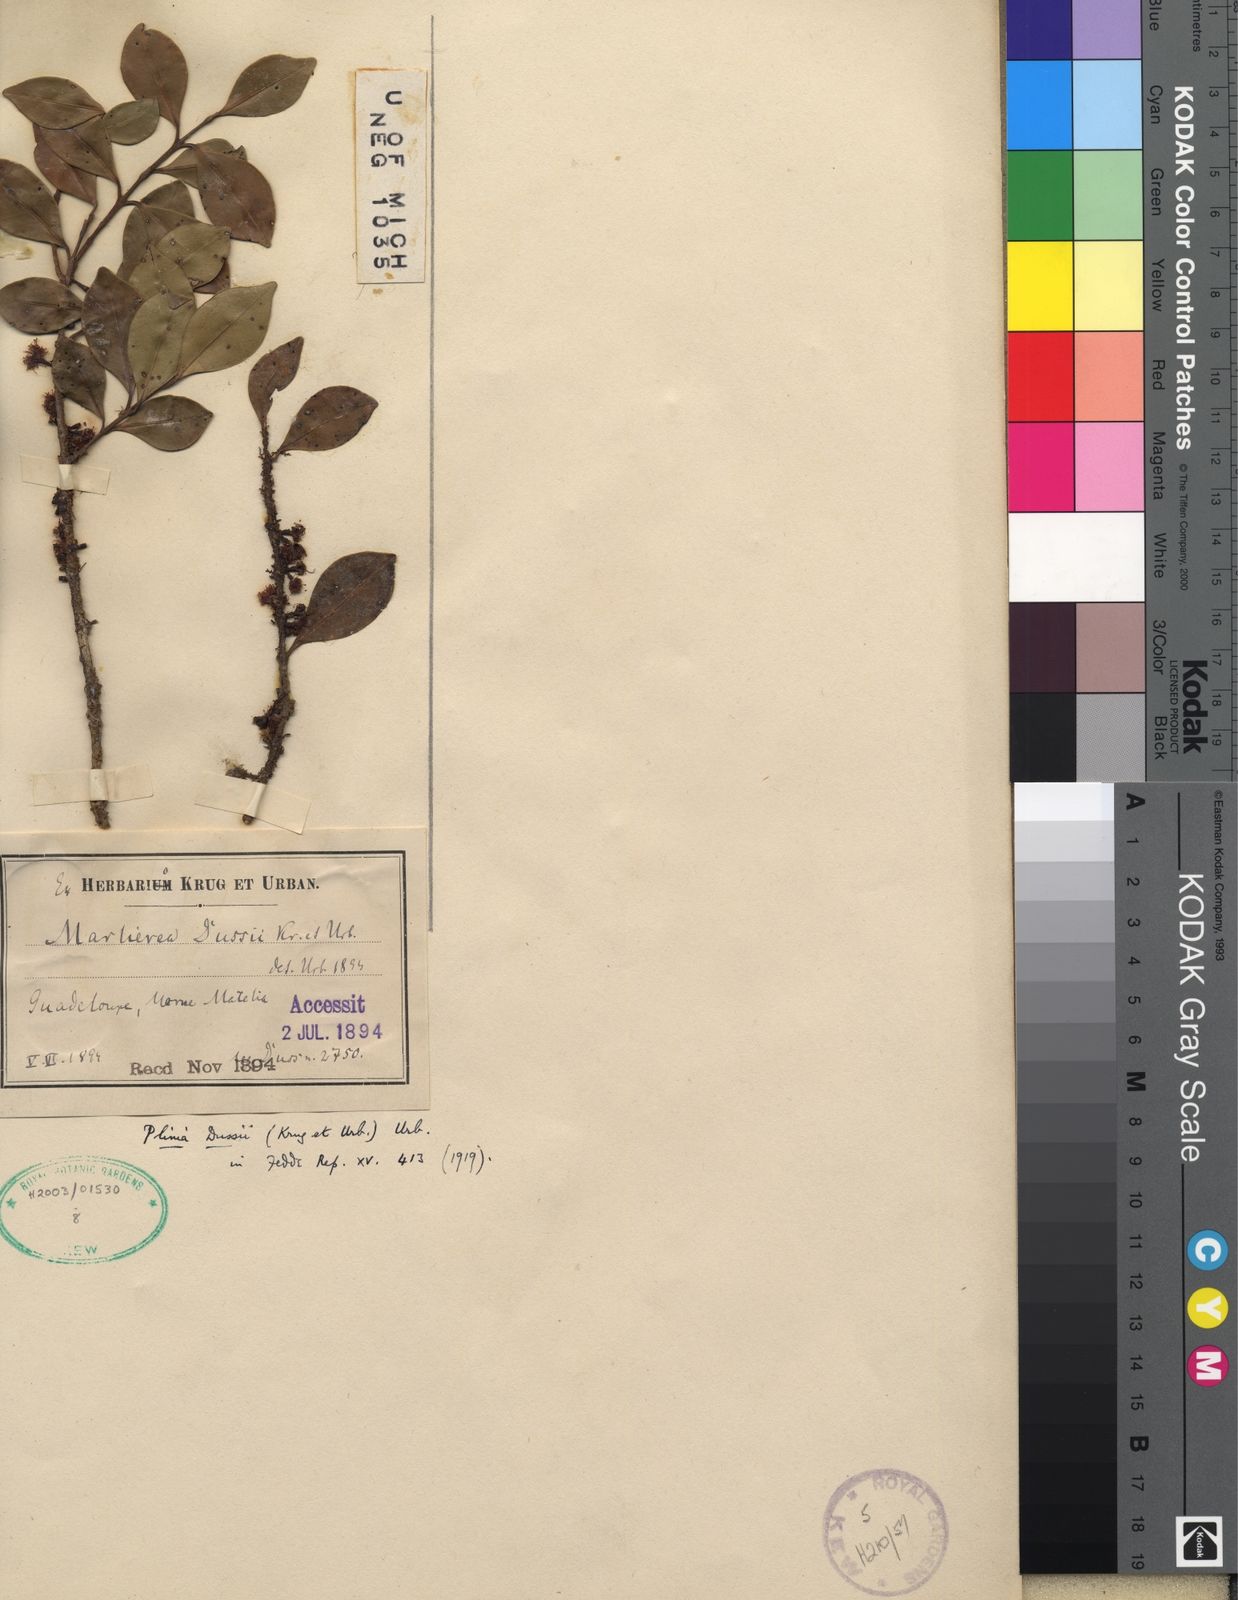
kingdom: Plantae
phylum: Tracheophyta
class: Magnoliopsida
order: Myrtales
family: Myrtaceae
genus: Siphoneugena
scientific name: Siphoneugena
